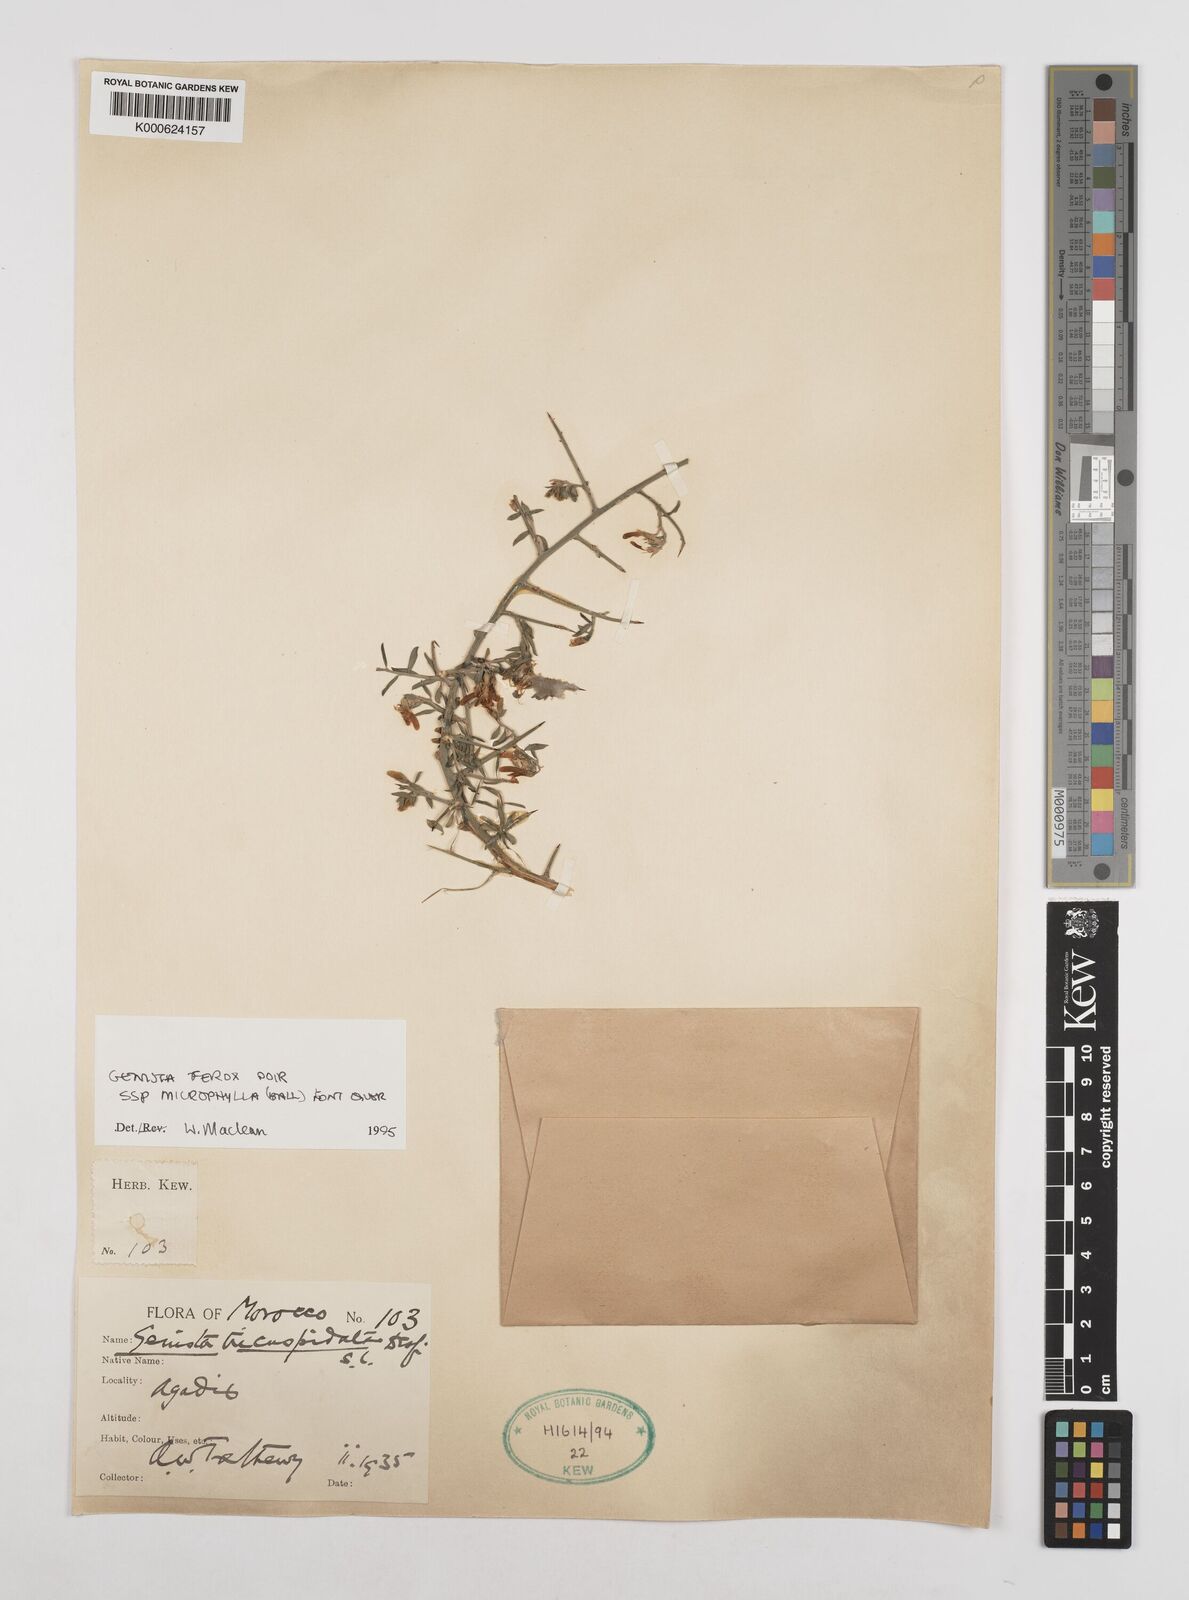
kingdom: Plantae
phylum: Tracheophyta
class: Magnoliopsida
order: Fabales
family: Fabaceae
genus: Genista
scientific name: Genista
